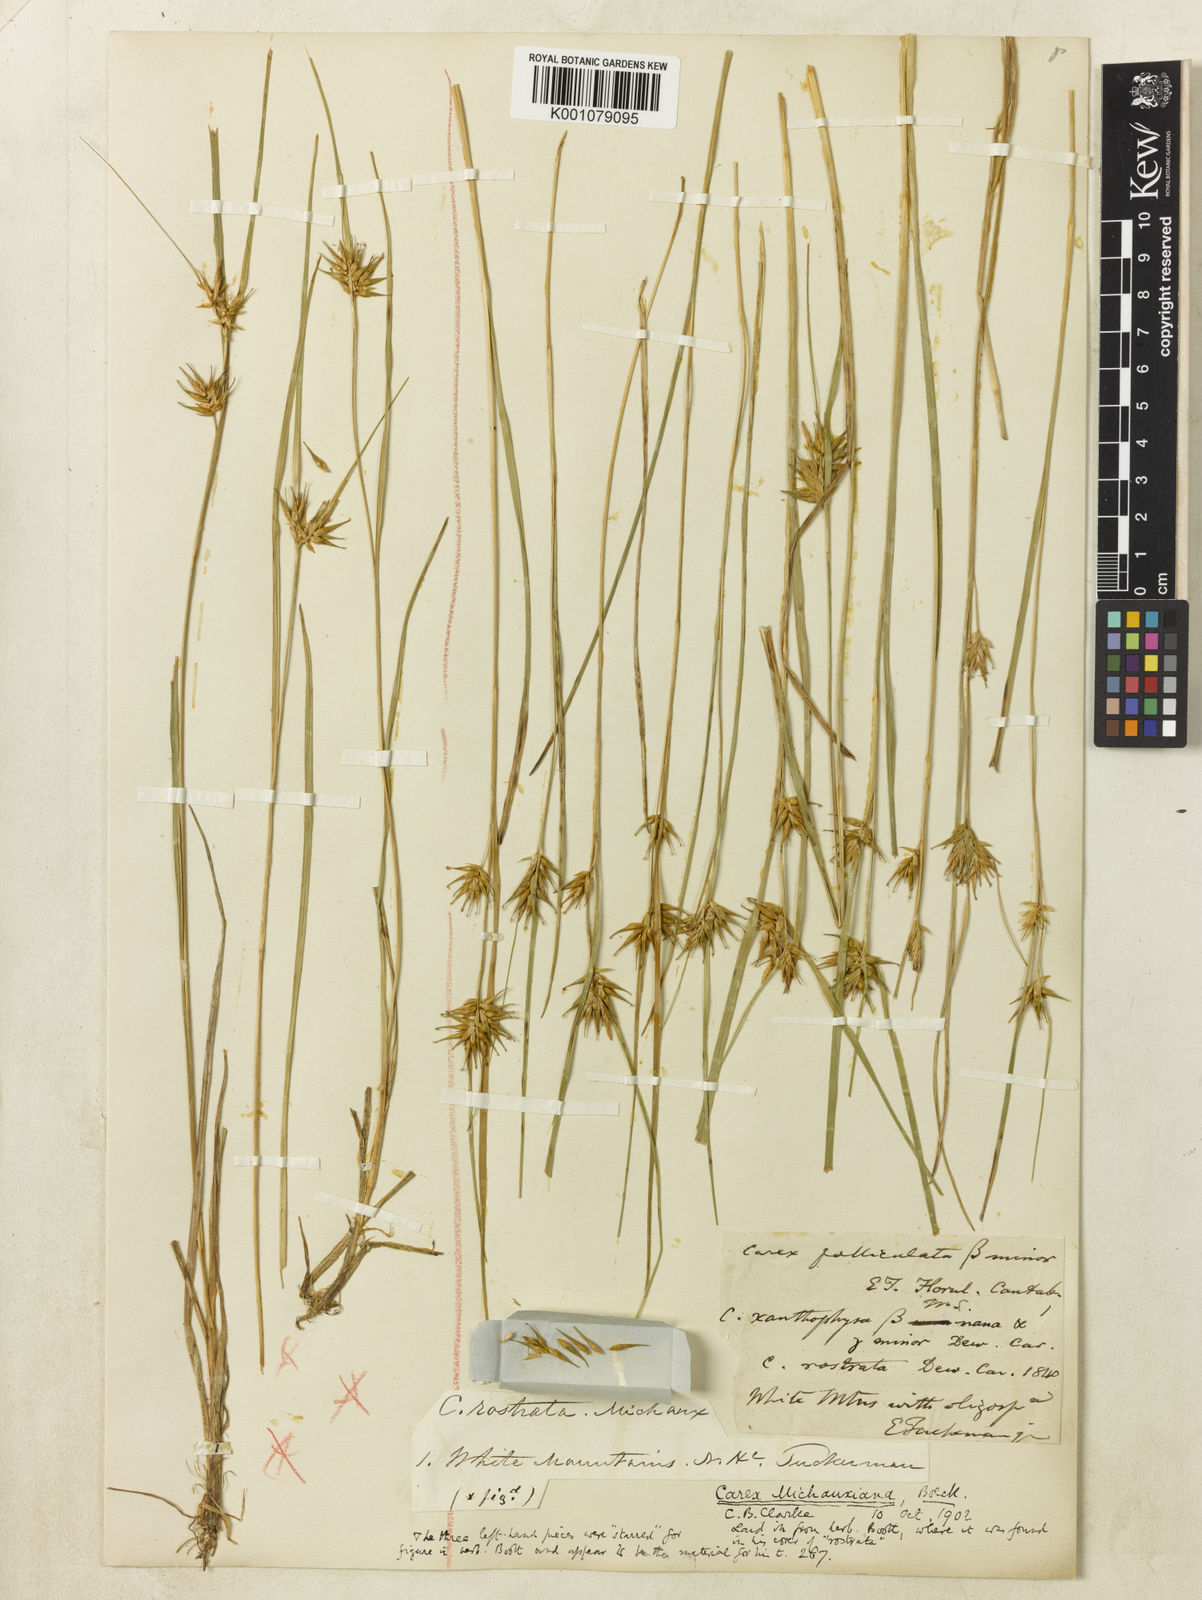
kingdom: Plantae
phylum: Tracheophyta
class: Liliopsida
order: Poales
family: Cyperaceae
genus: Carex
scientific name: Carex michauxiana
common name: Michaux's sedge
